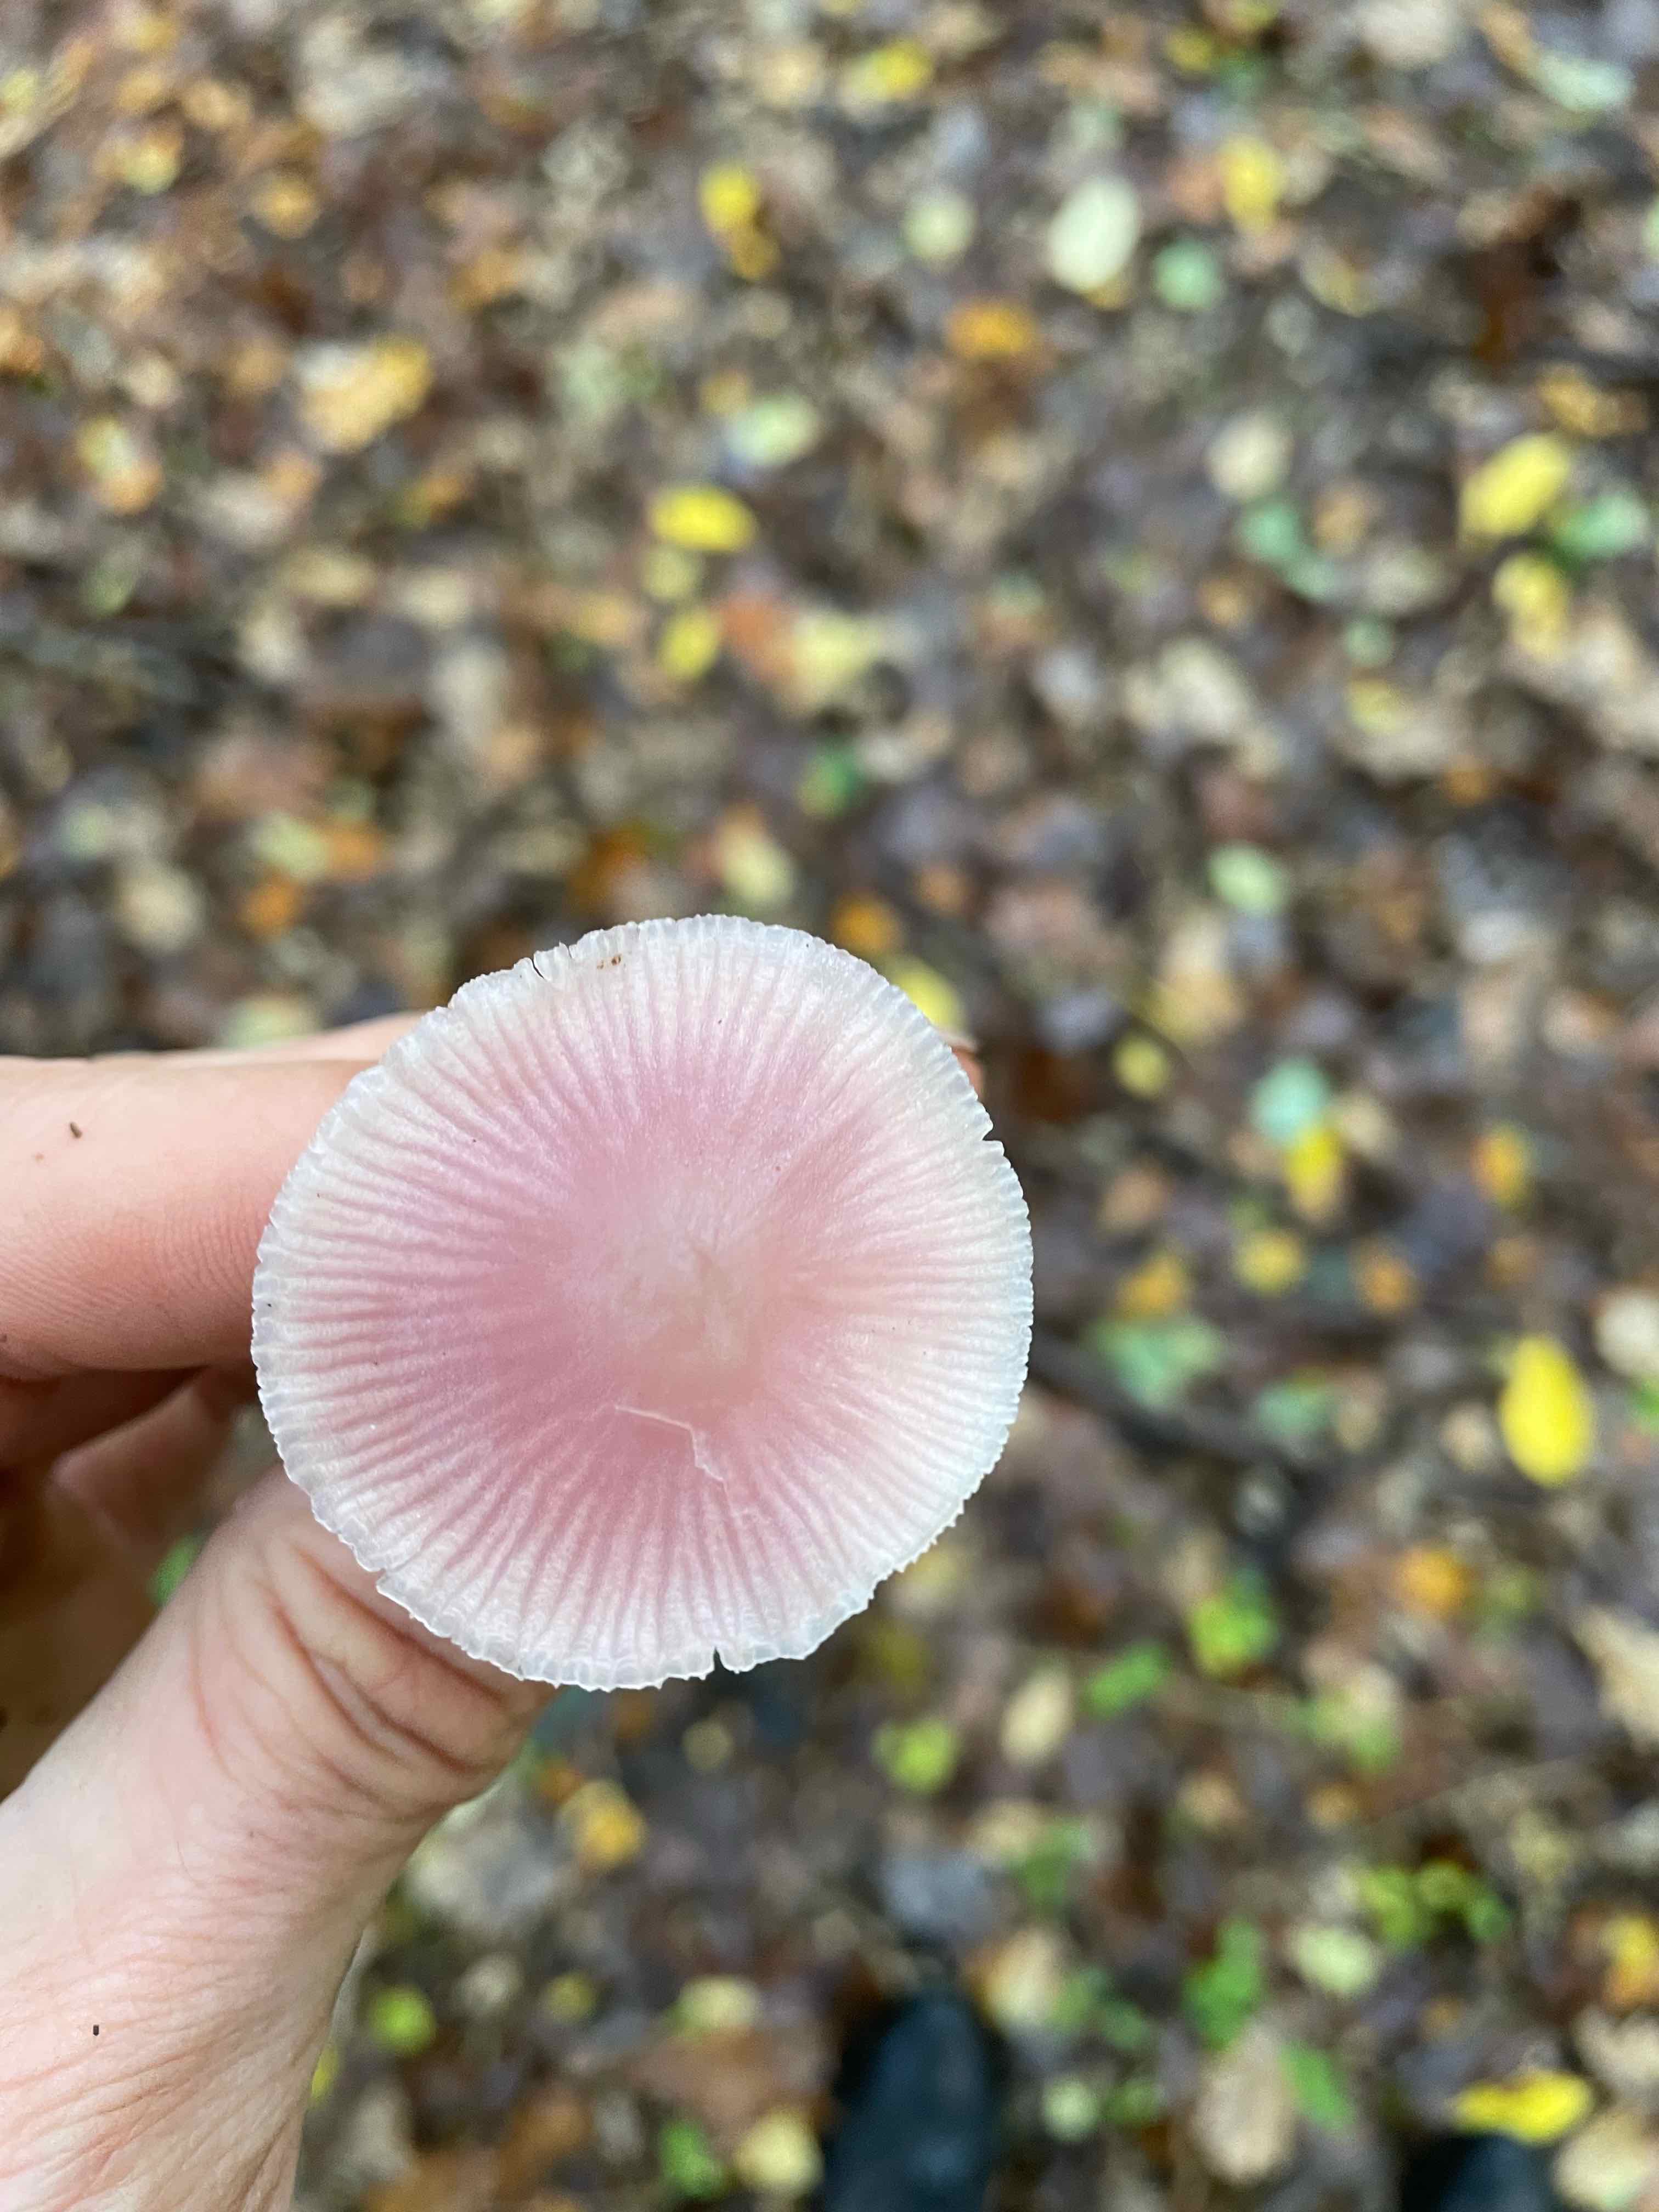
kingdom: Fungi
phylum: Basidiomycota
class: Agaricomycetes
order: Agaricales
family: Mycenaceae
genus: Mycena
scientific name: Mycena rosea
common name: rosa huesvamp
